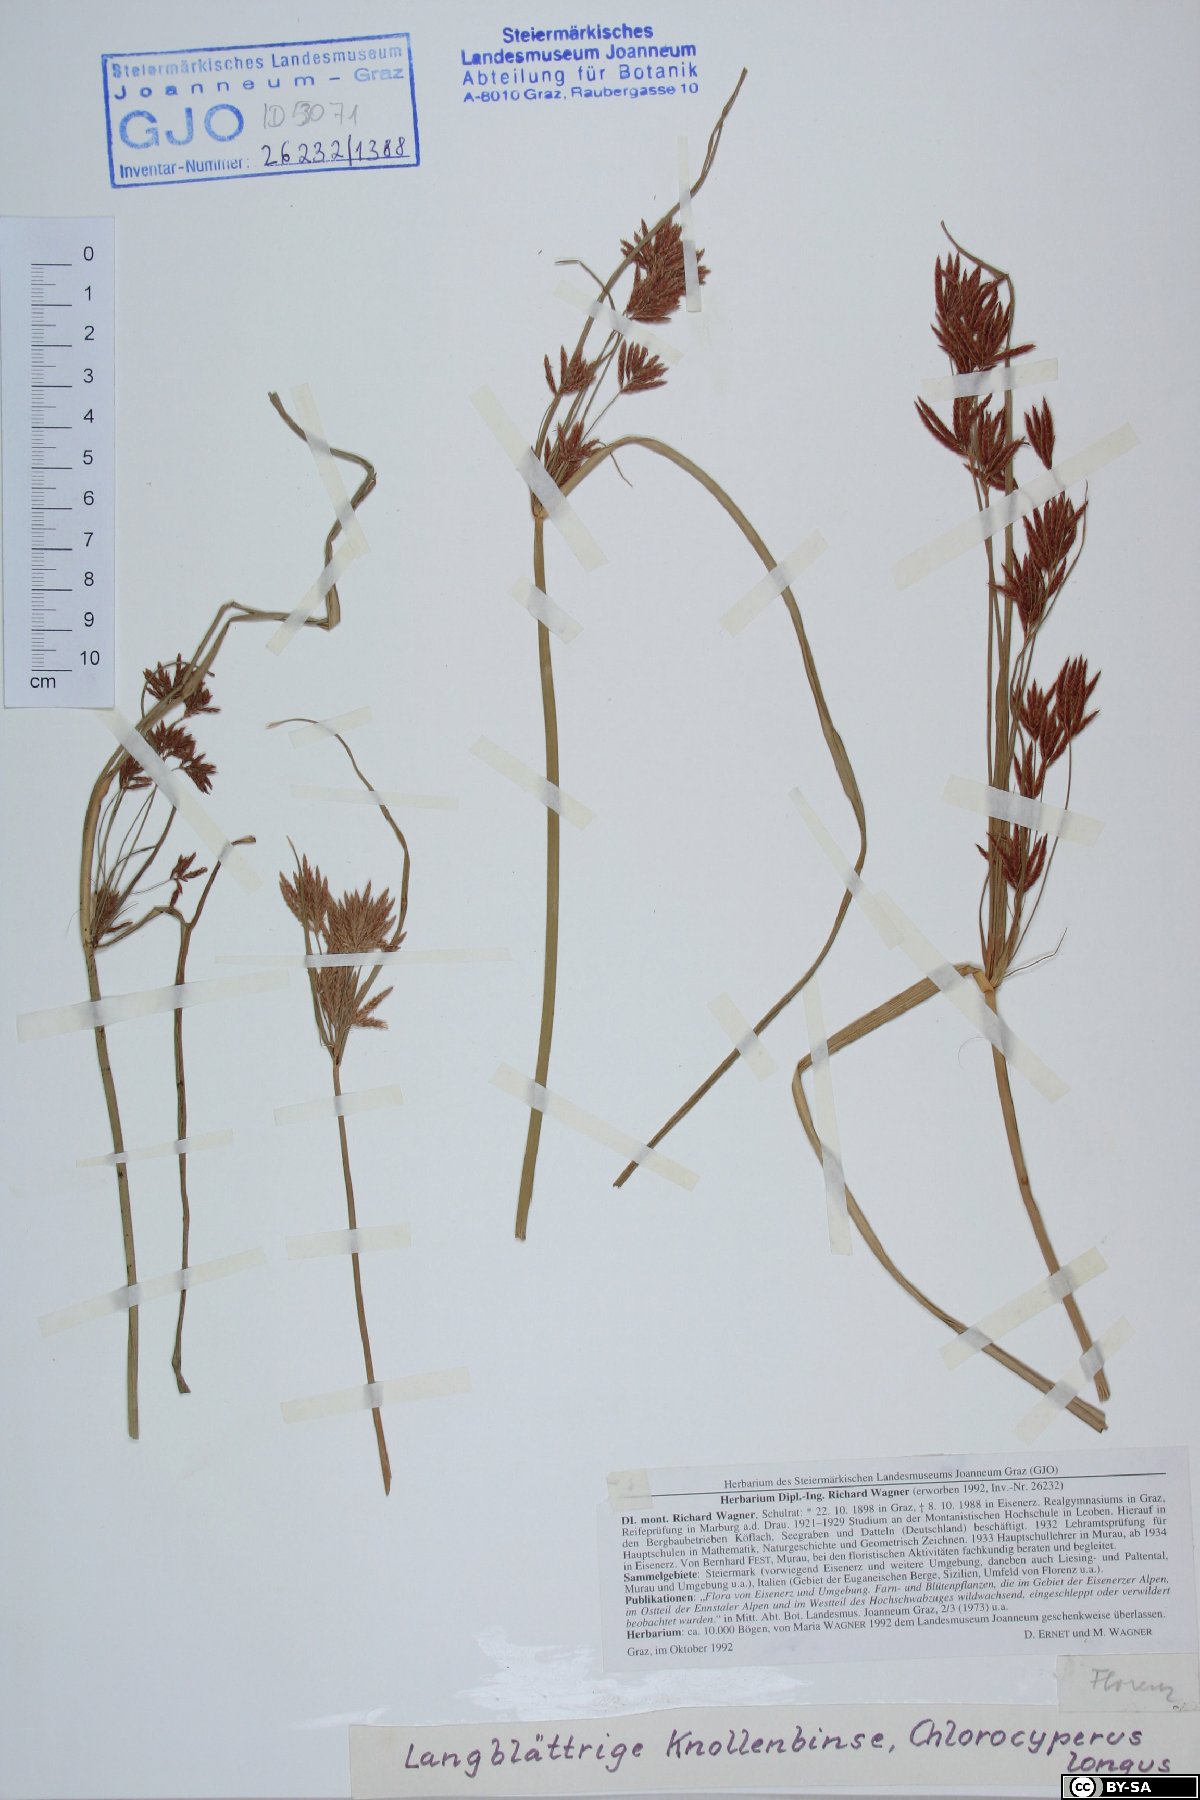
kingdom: Plantae
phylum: Tracheophyta
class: Liliopsida
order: Poales
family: Cyperaceae
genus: Cyperus
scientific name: Cyperus longus
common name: Galingale
